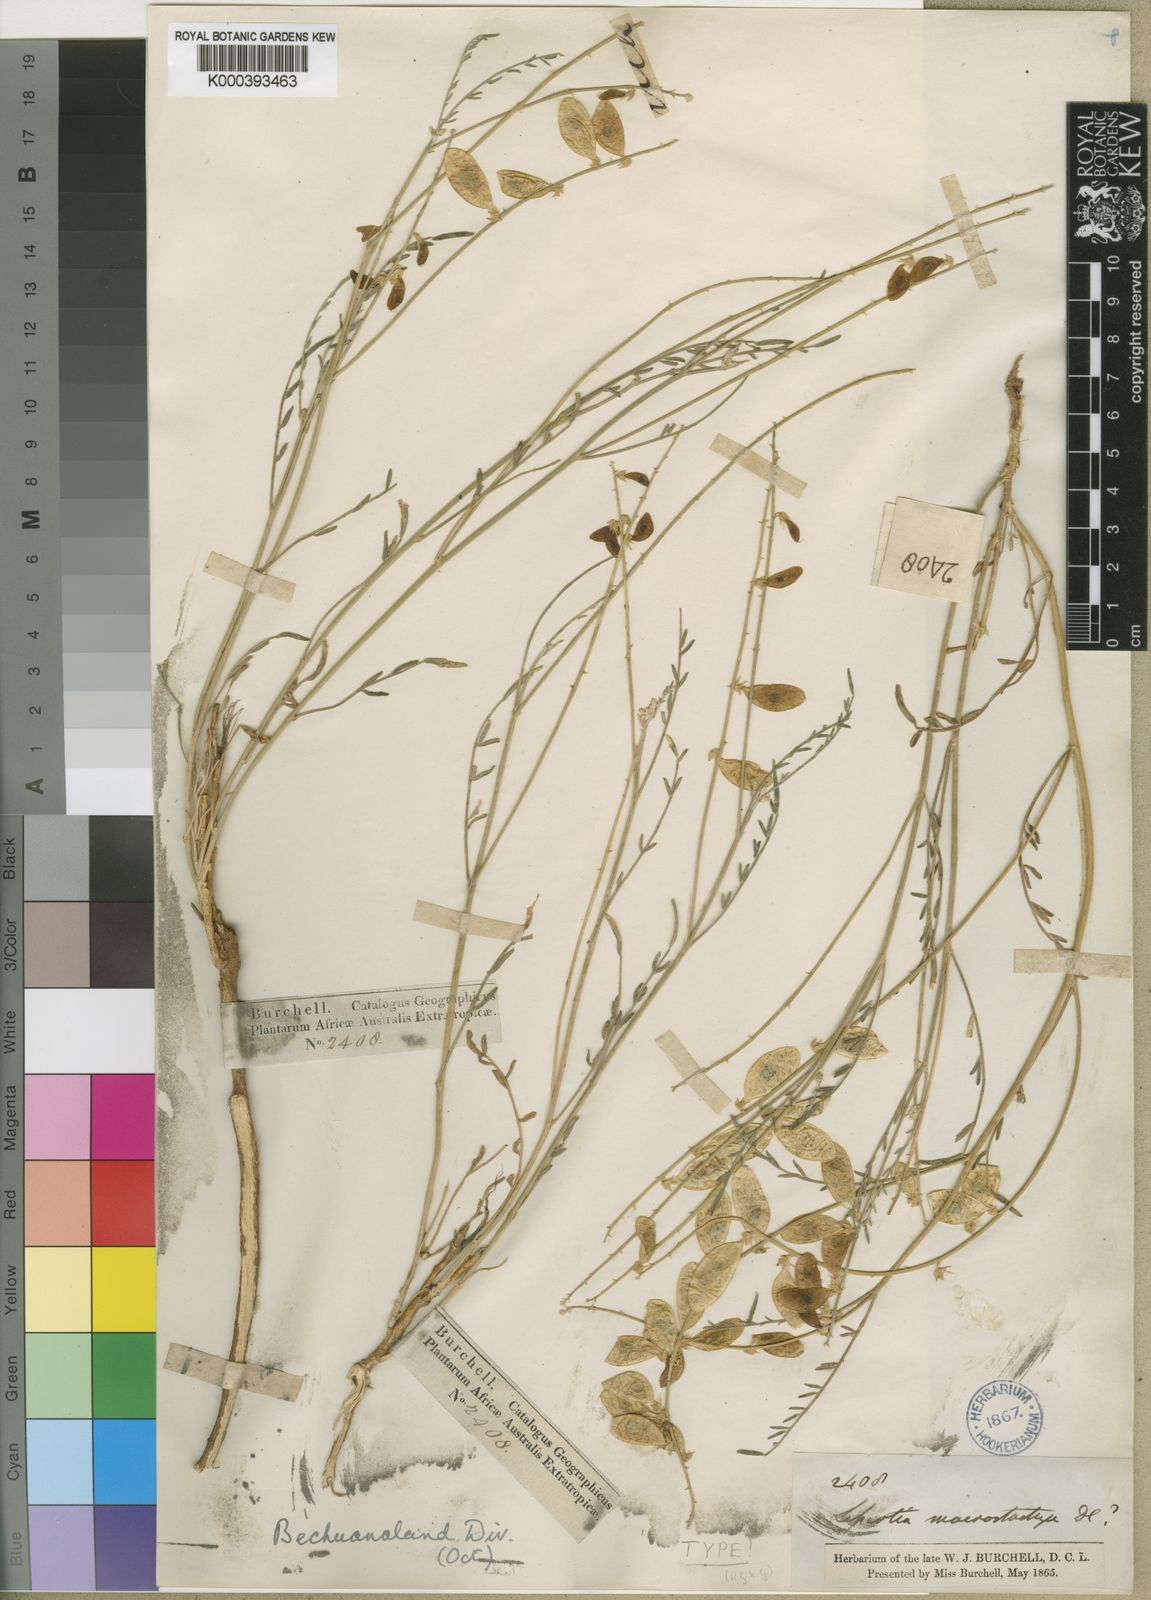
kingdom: Plantae
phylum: Tracheophyta
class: Magnoliopsida
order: Fabales
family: Fabaceae
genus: Lessertia
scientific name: Lessertia macrostachya
